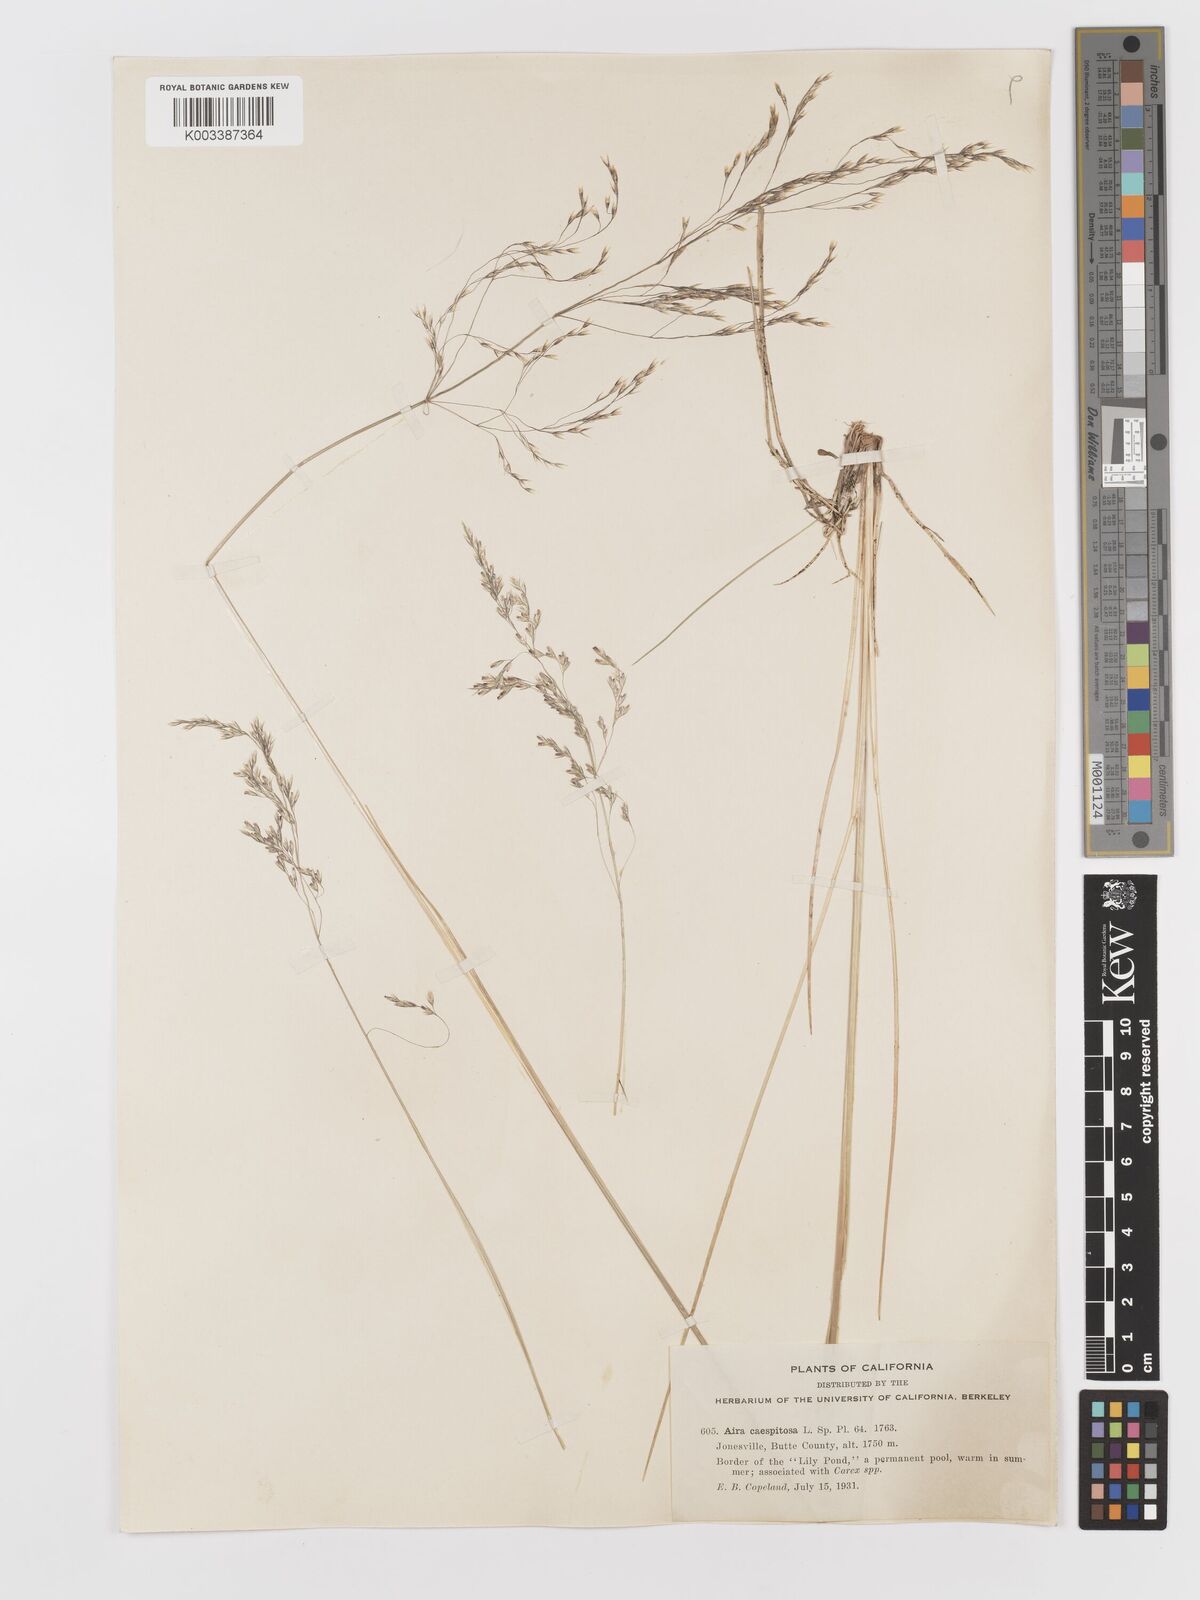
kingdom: Plantae
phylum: Tracheophyta
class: Liliopsida
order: Poales
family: Poaceae
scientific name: Poaceae
